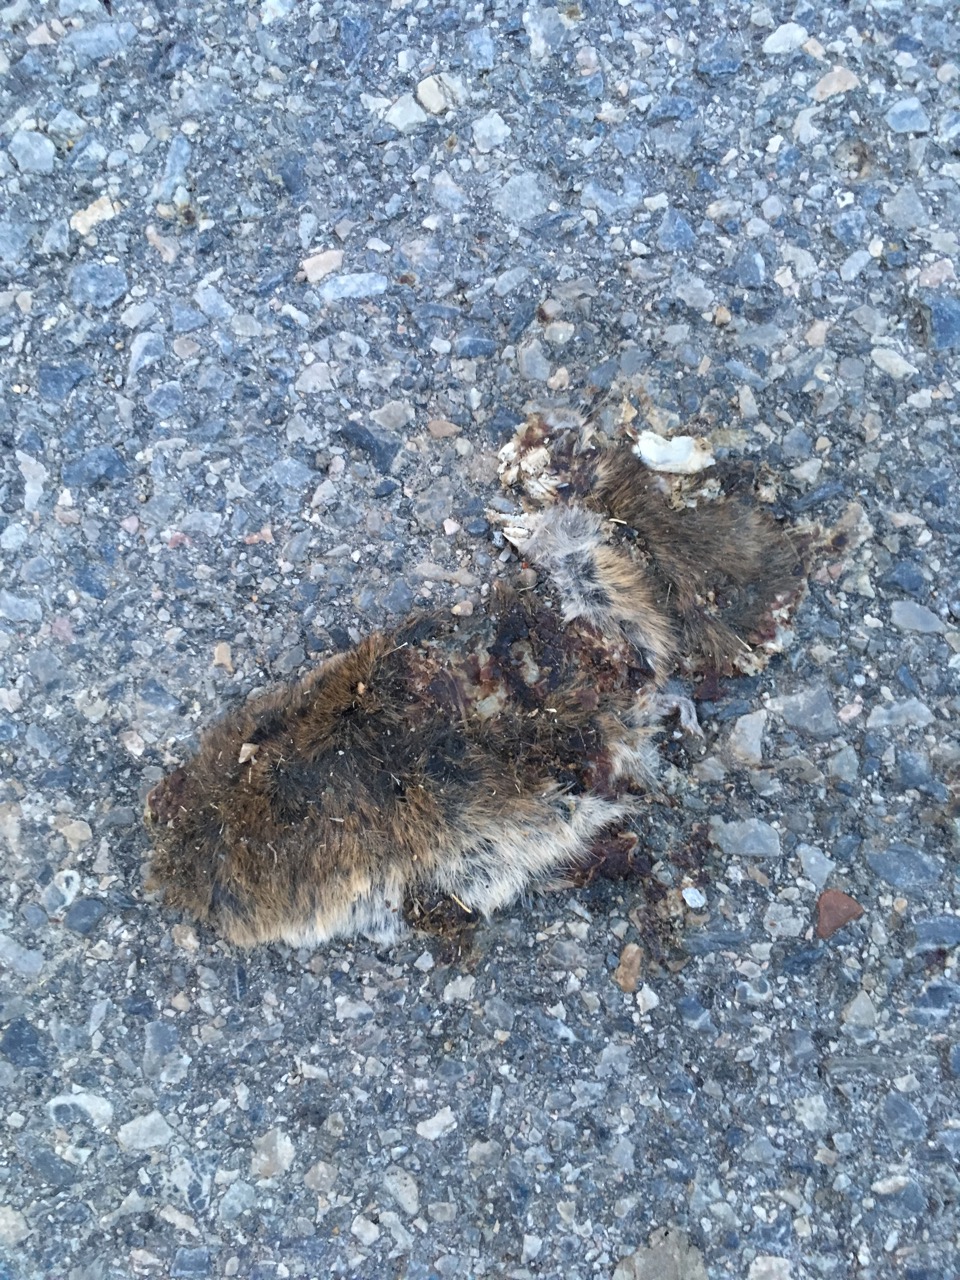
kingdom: Animalia
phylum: Chordata
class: Mammalia
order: Rodentia
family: Cricetidae
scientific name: Cricetidae
